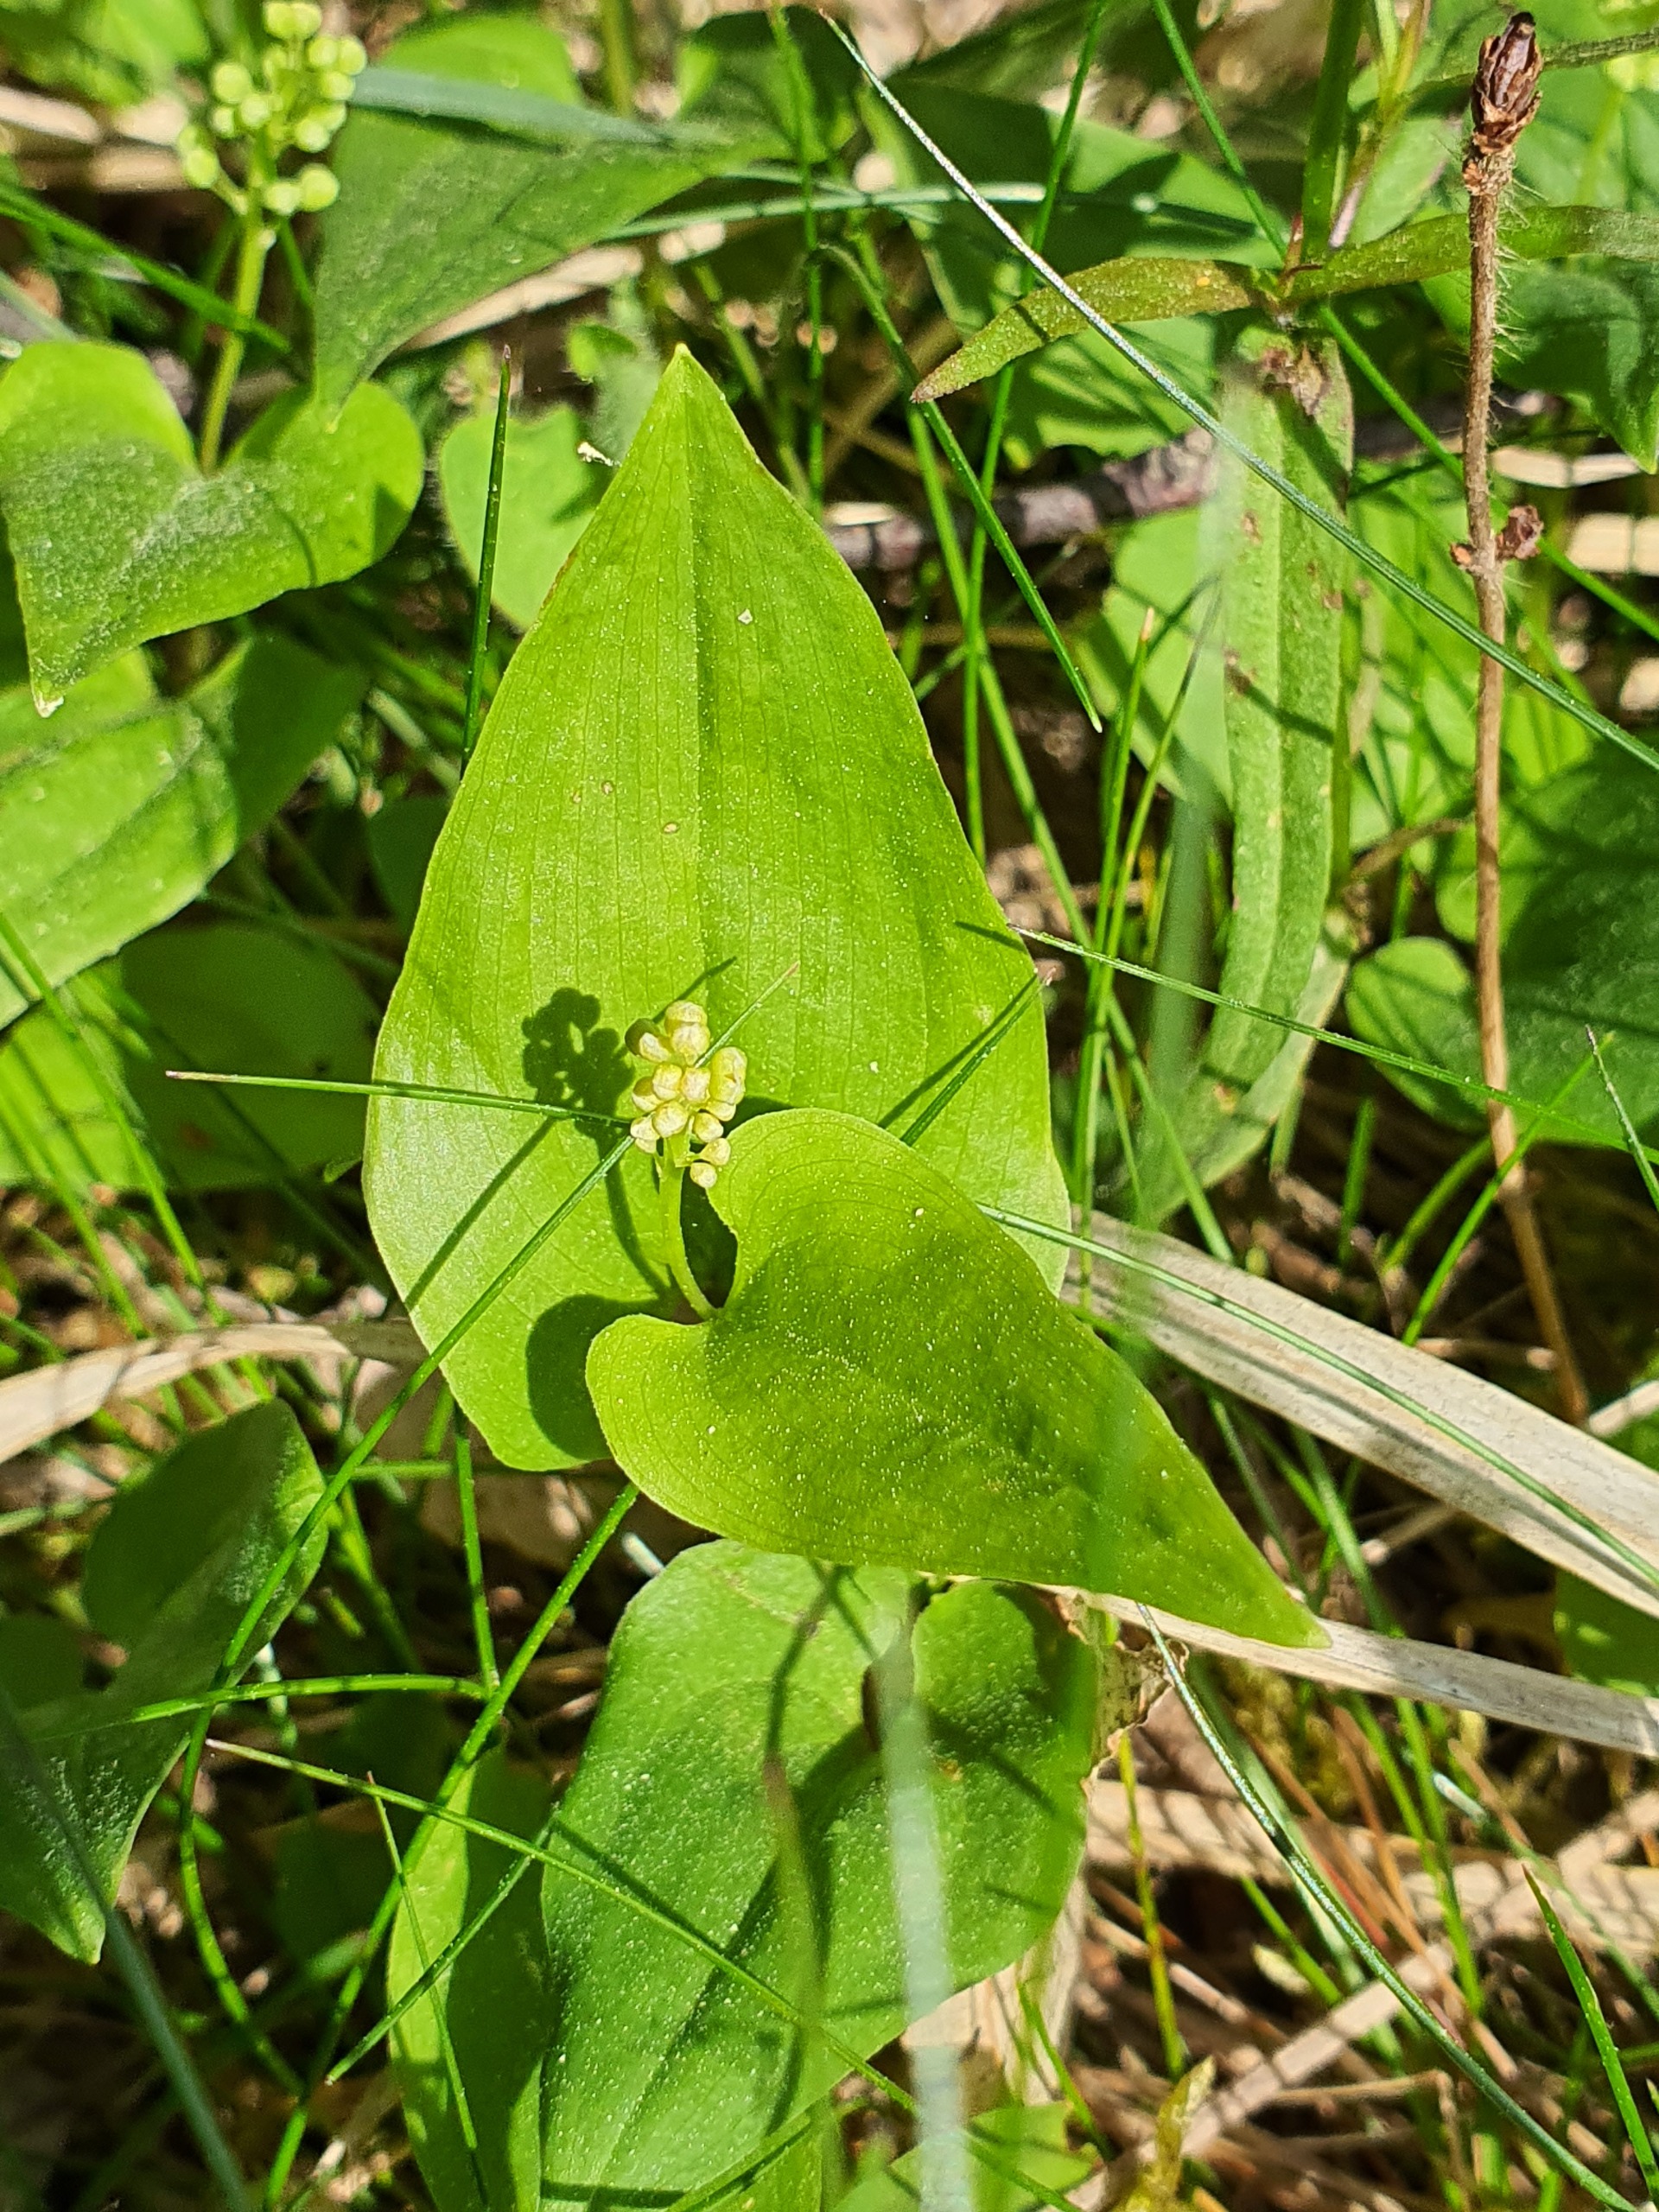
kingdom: Plantae
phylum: Tracheophyta
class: Liliopsida
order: Asparagales
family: Asparagaceae
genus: Maianthemum
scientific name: Maianthemum bifolium
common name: Majblomst
